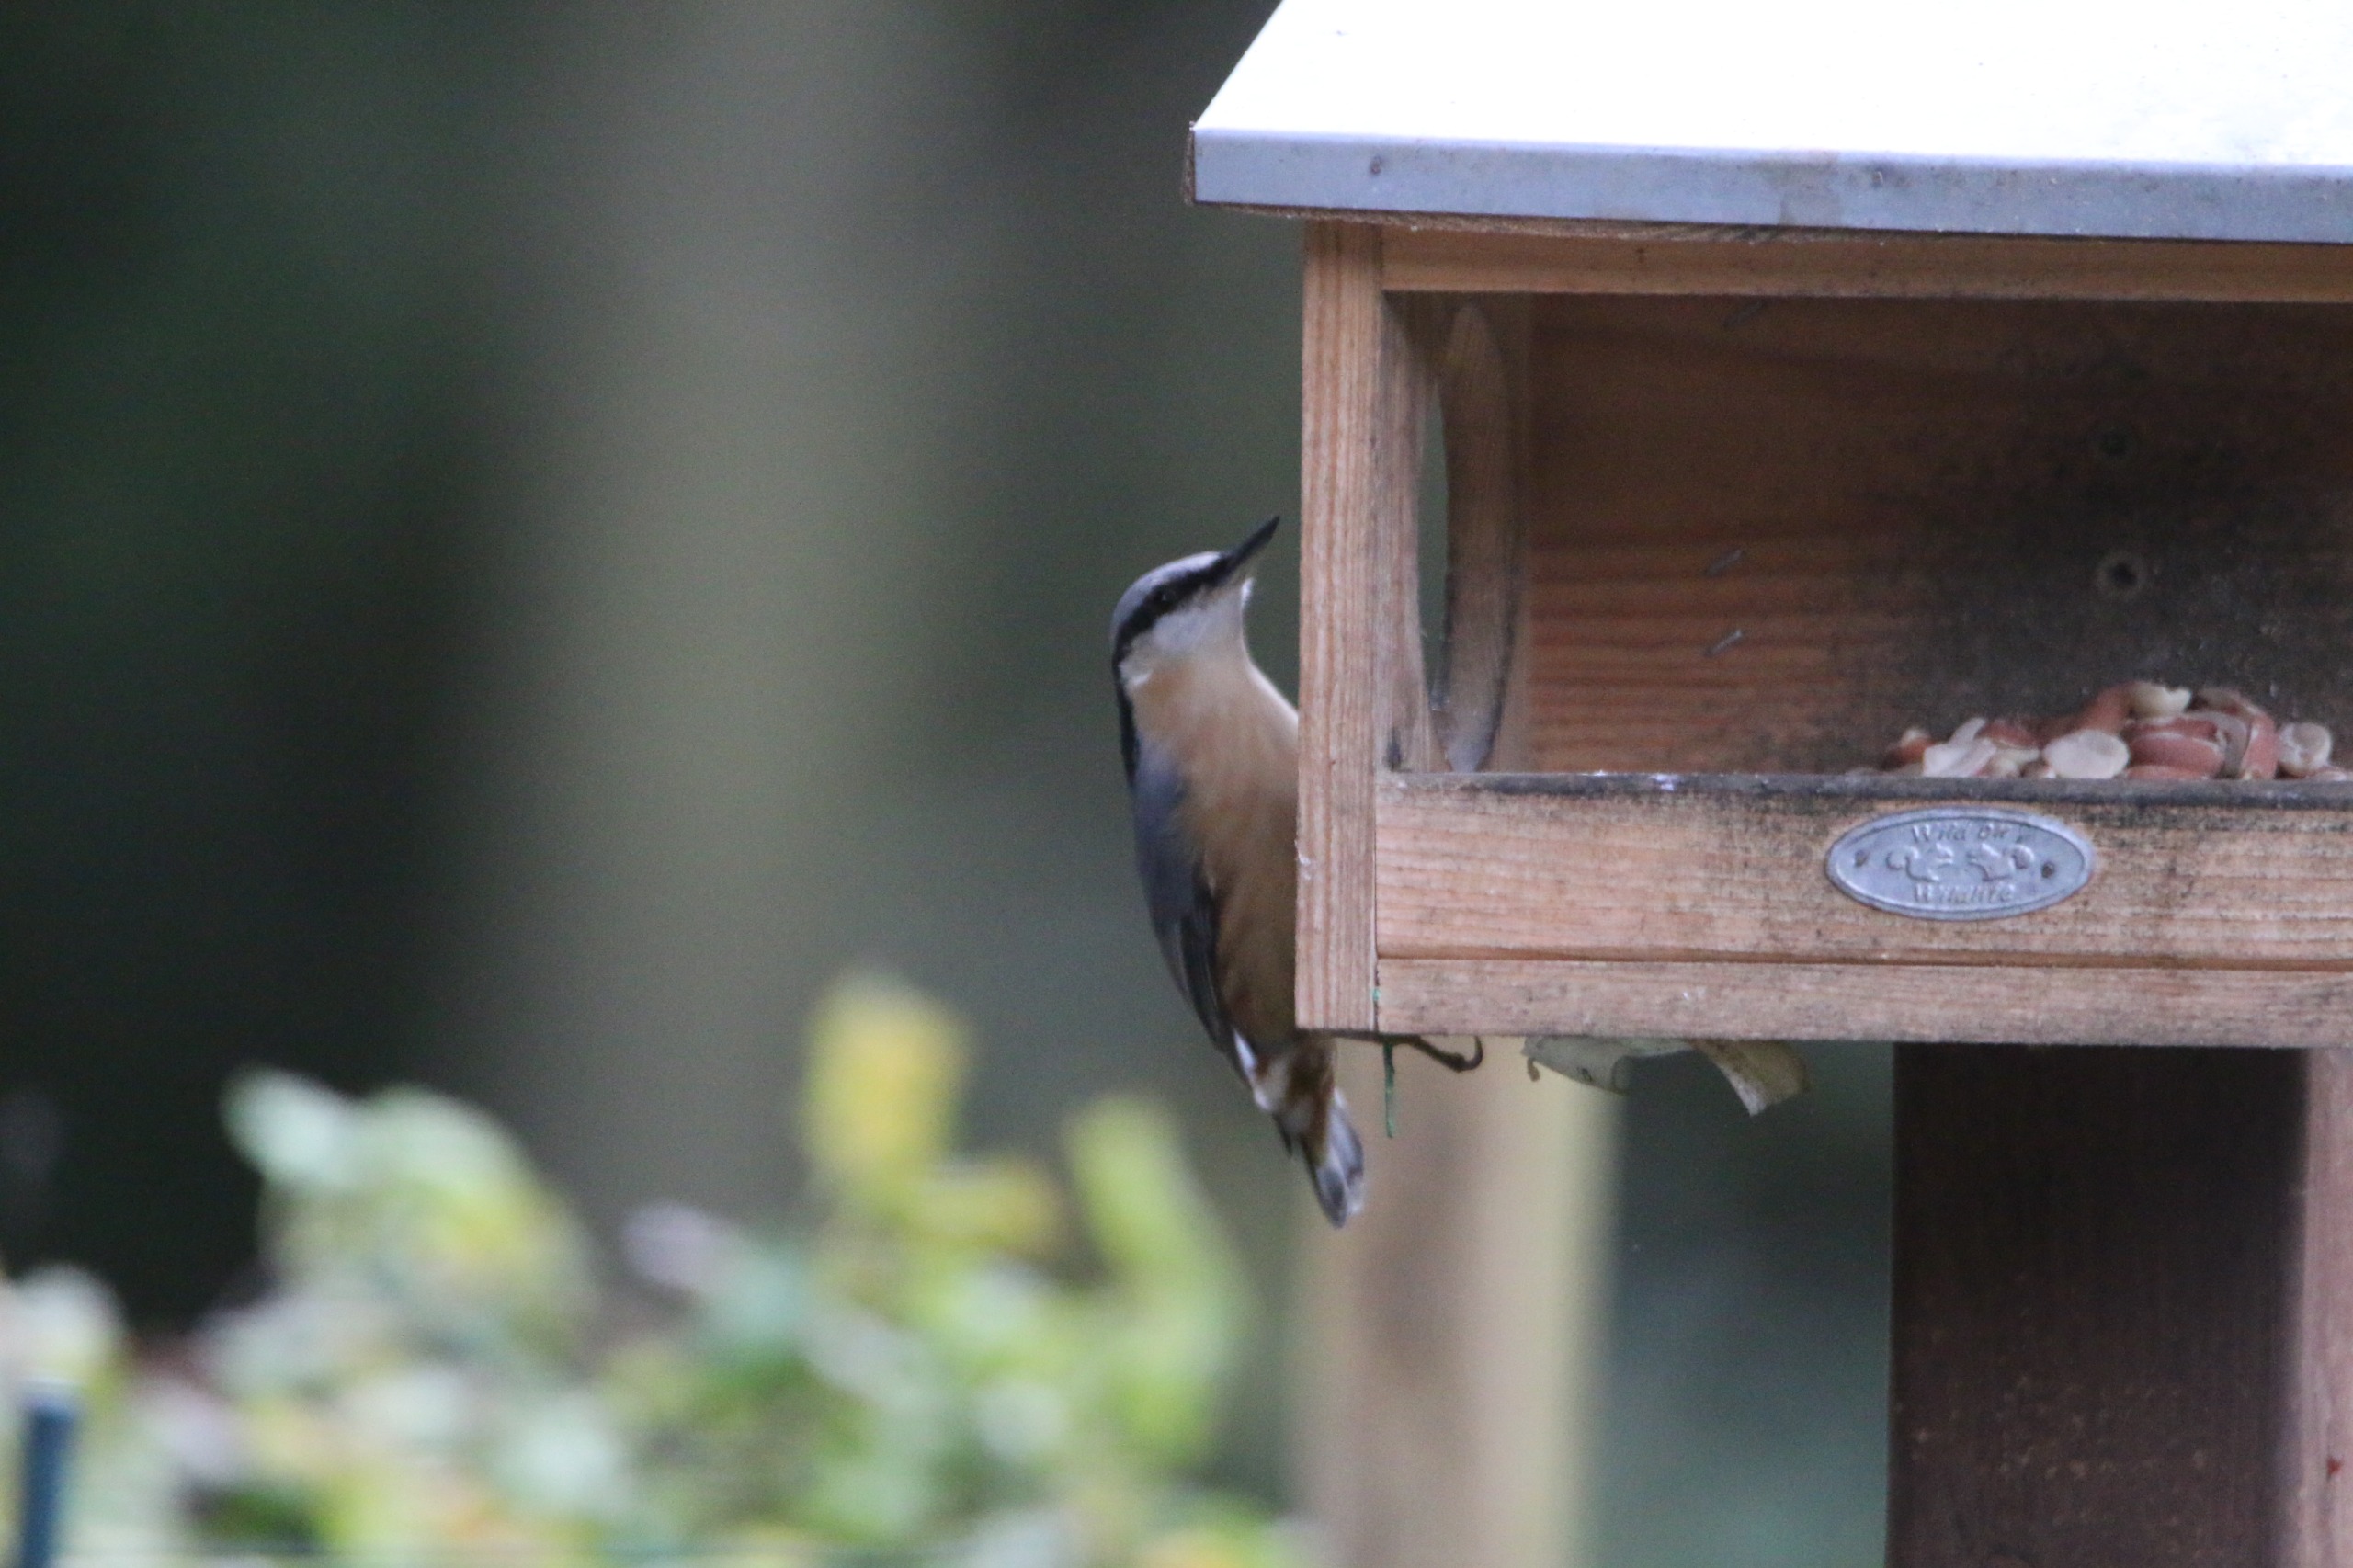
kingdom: Animalia
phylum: Chordata
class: Aves
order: Passeriformes
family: Sittidae
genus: Sitta
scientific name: Sitta europaea
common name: Spætmejse
